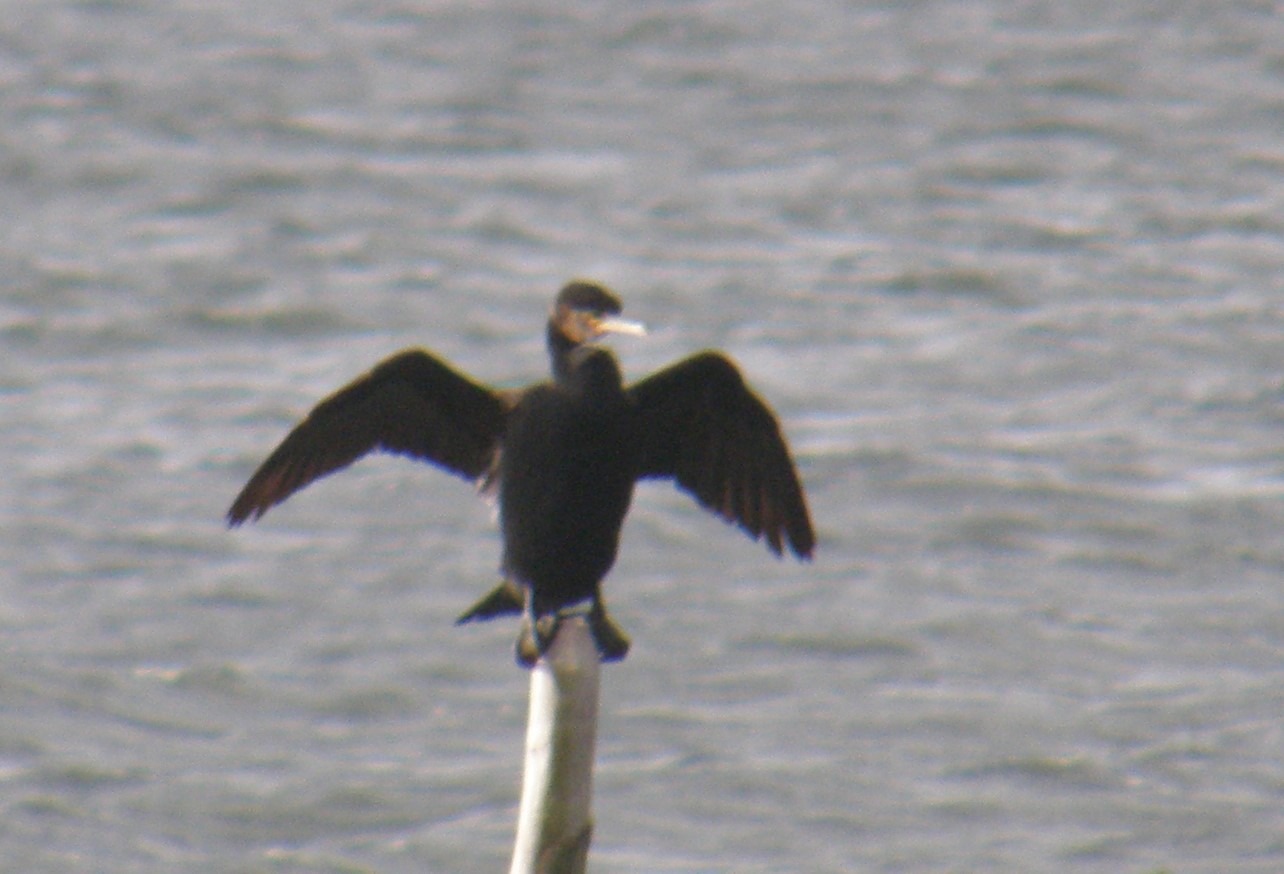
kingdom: Animalia
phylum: Chordata
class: Aves
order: Suliformes
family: Phalacrocoracidae
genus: Phalacrocorax
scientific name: Phalacrocorax carbo
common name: Skarv
